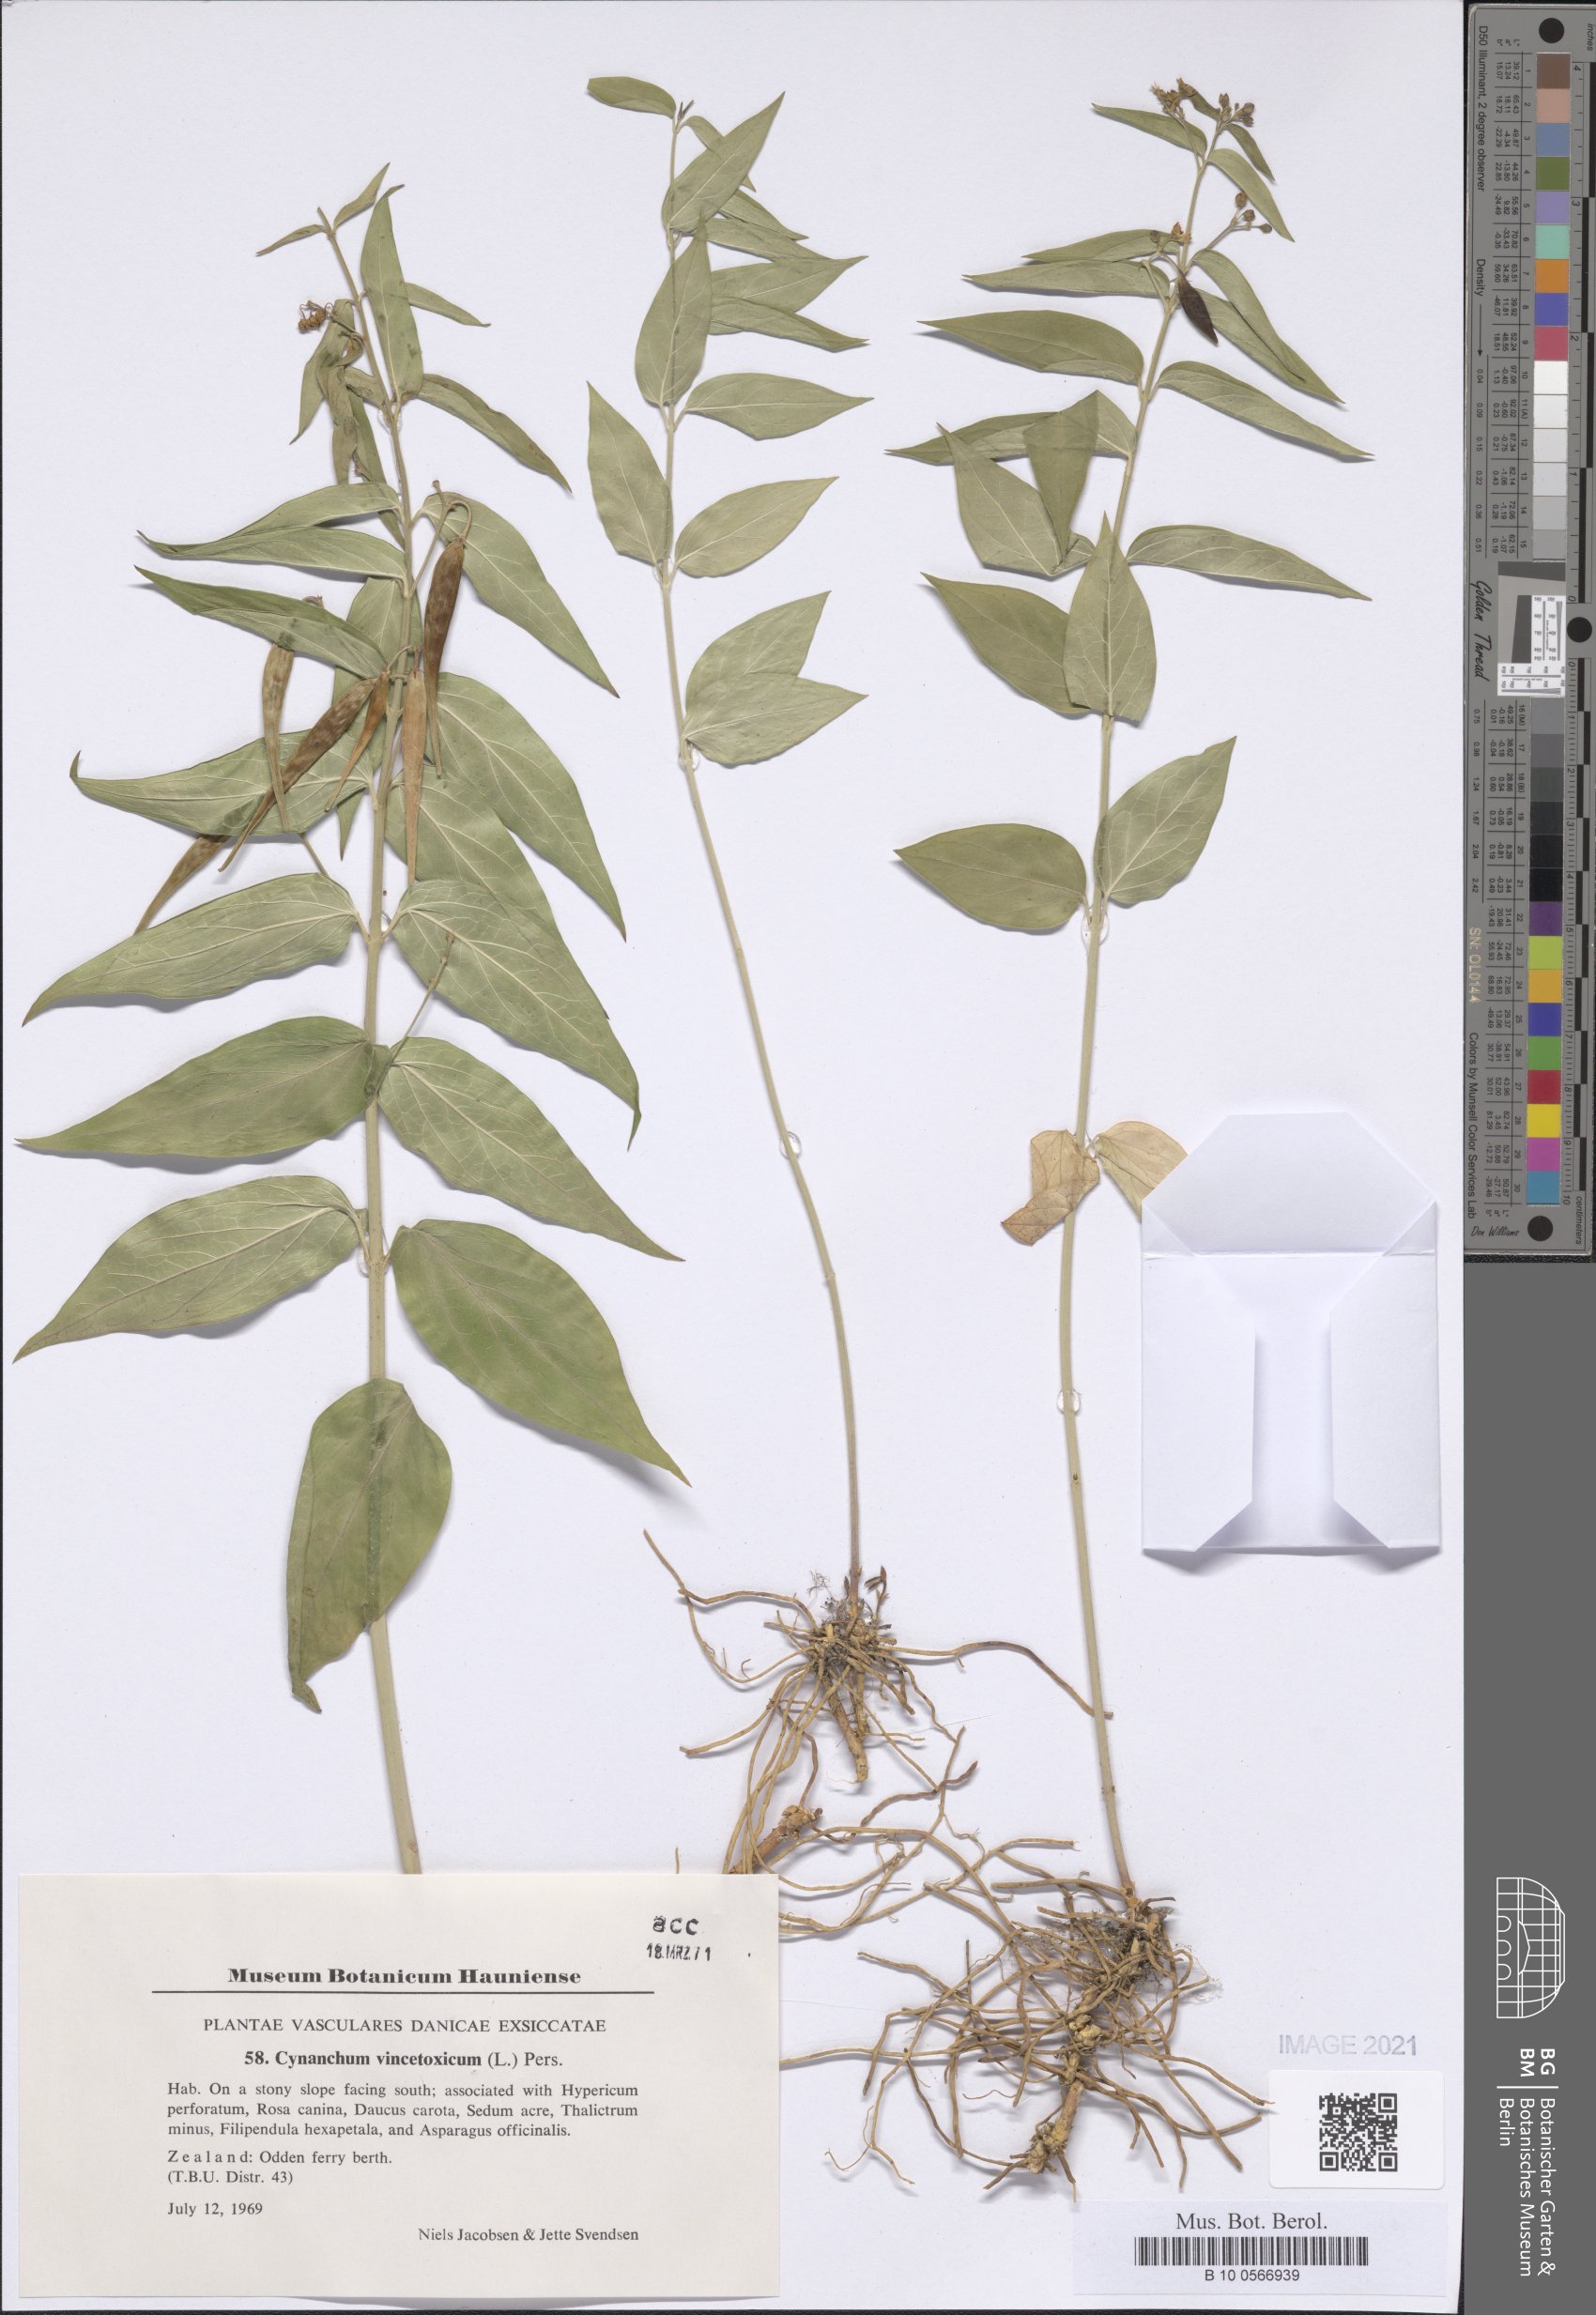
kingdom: Plantae
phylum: Tracheophyta
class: Magnoliopsida
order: Gentianales
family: Apocynaceae
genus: Vincetoxicum
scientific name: Vincetoxicum hirundinaria
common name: White swallowwort
